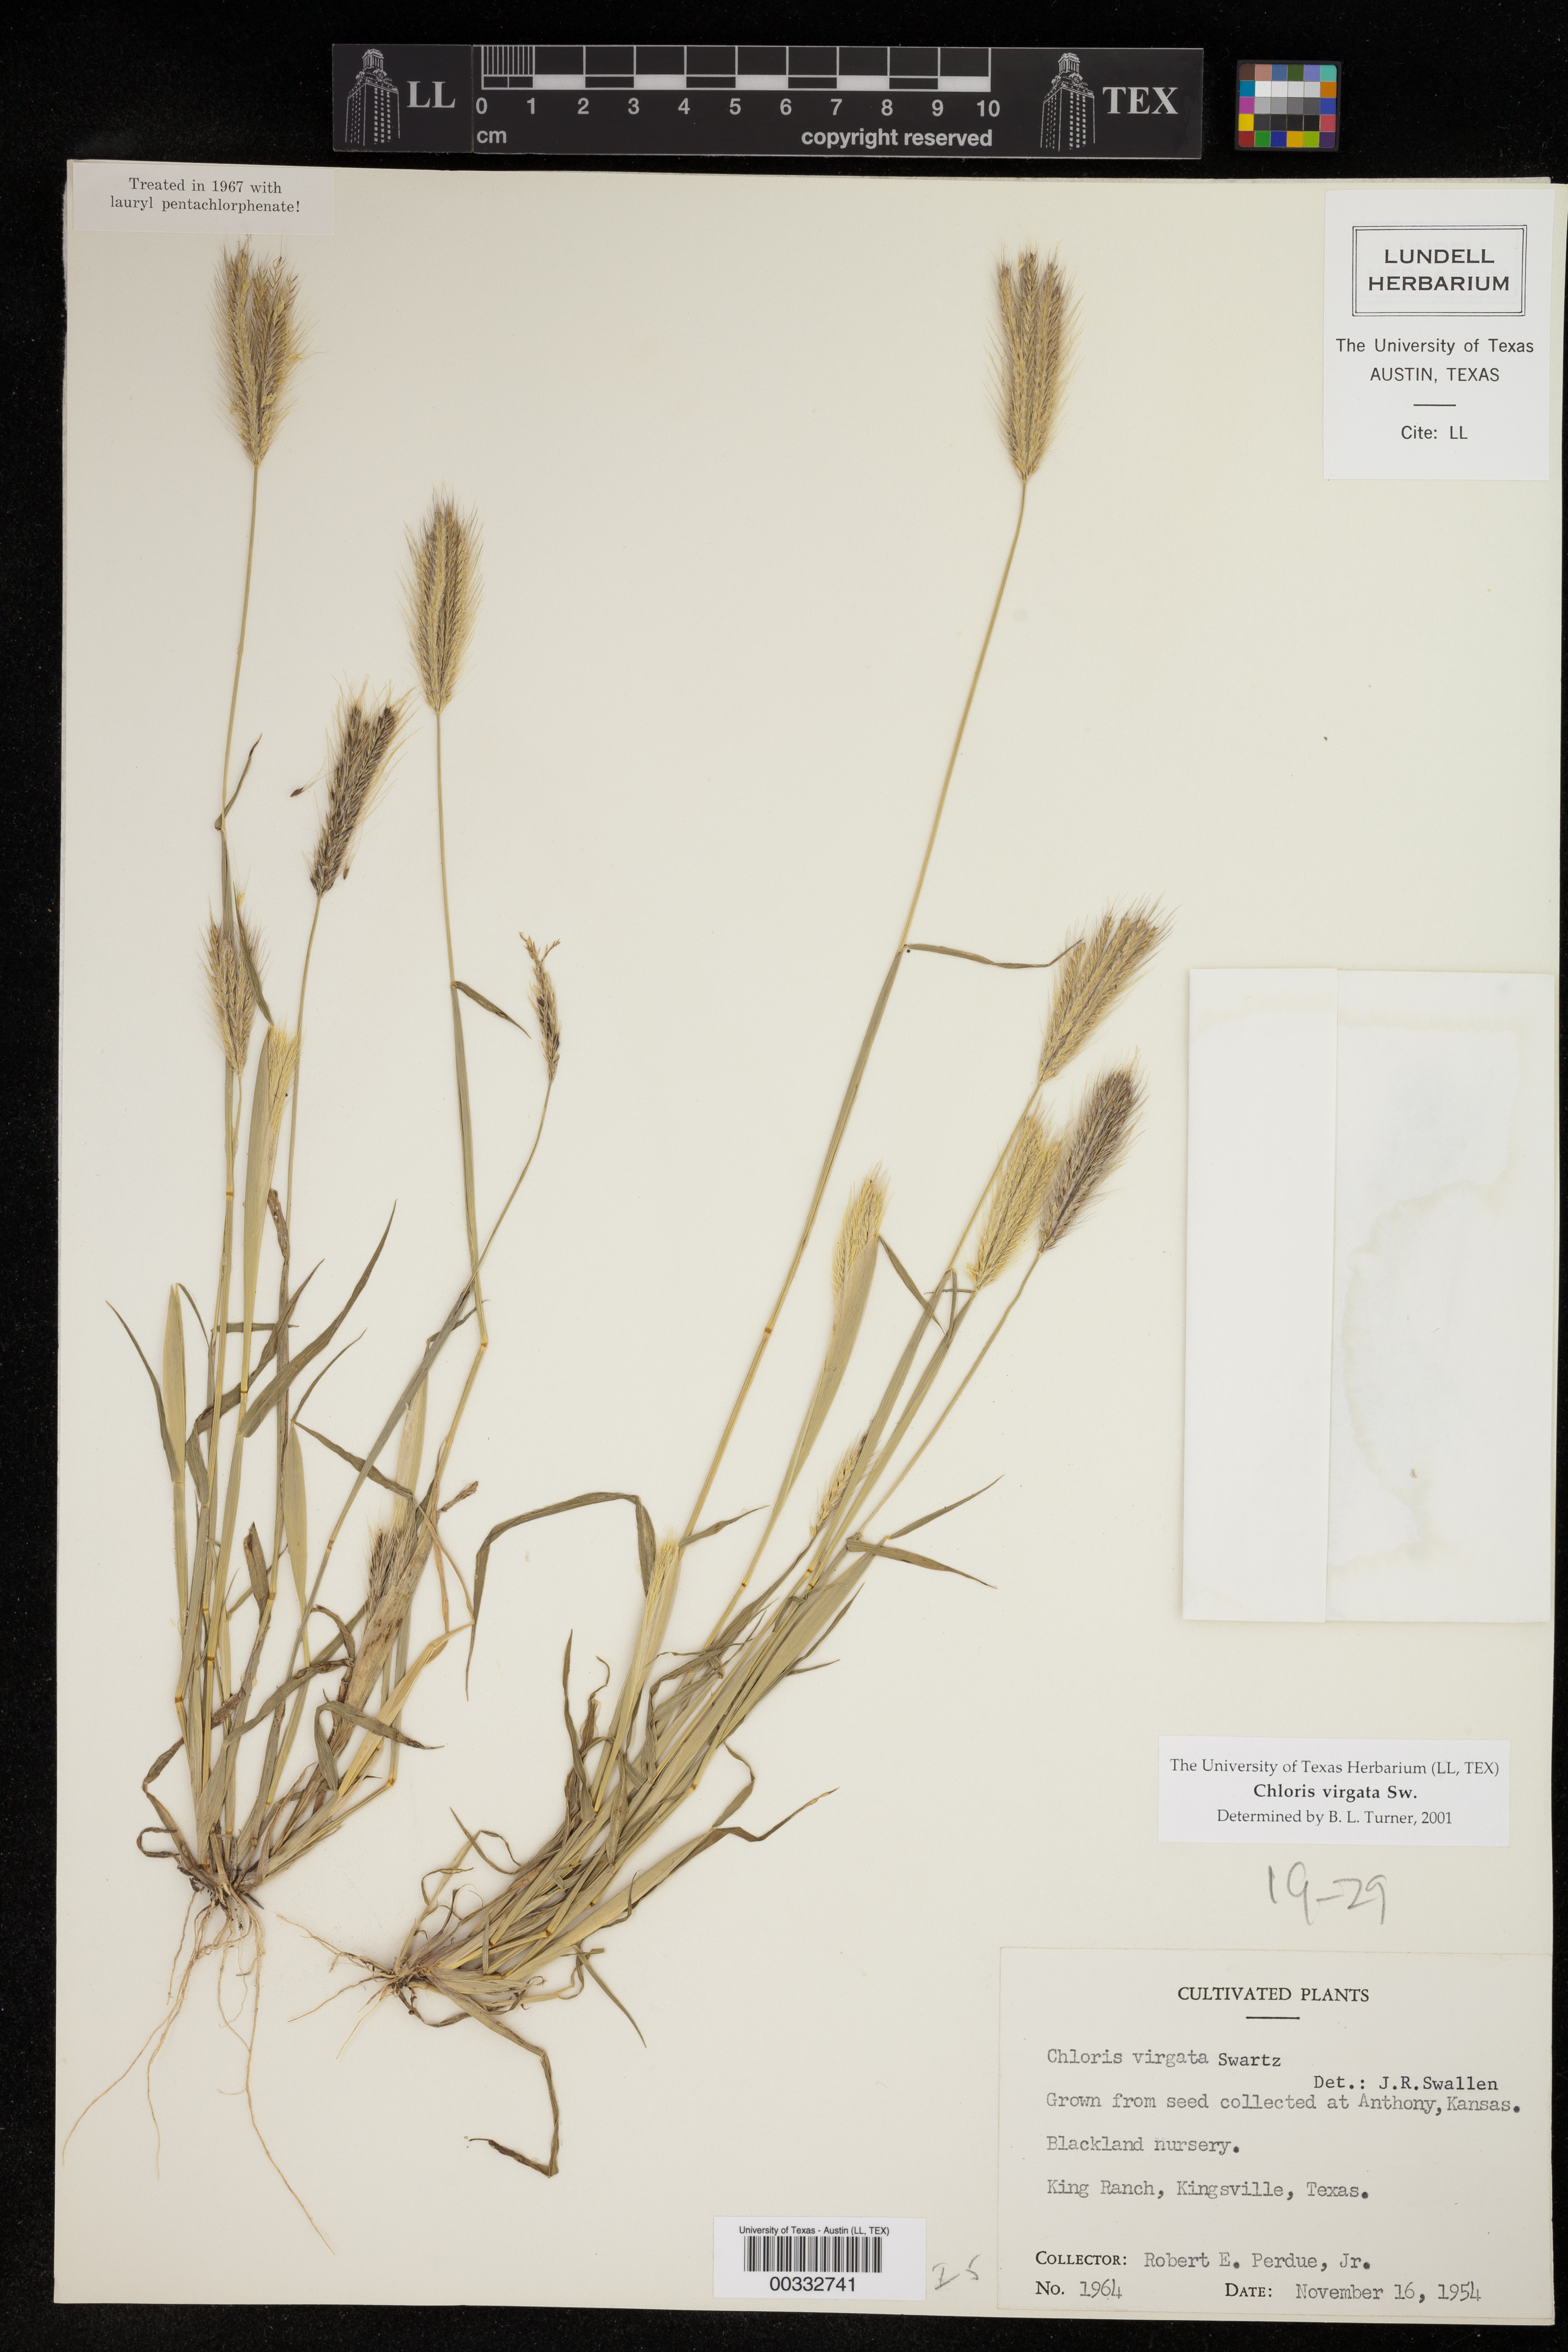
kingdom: Plantae
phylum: Tracheophyta
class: Liliopsida
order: Poales
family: Poaceae
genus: Chloris
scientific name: Chloris virgata
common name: Feathery rhodes-grass
